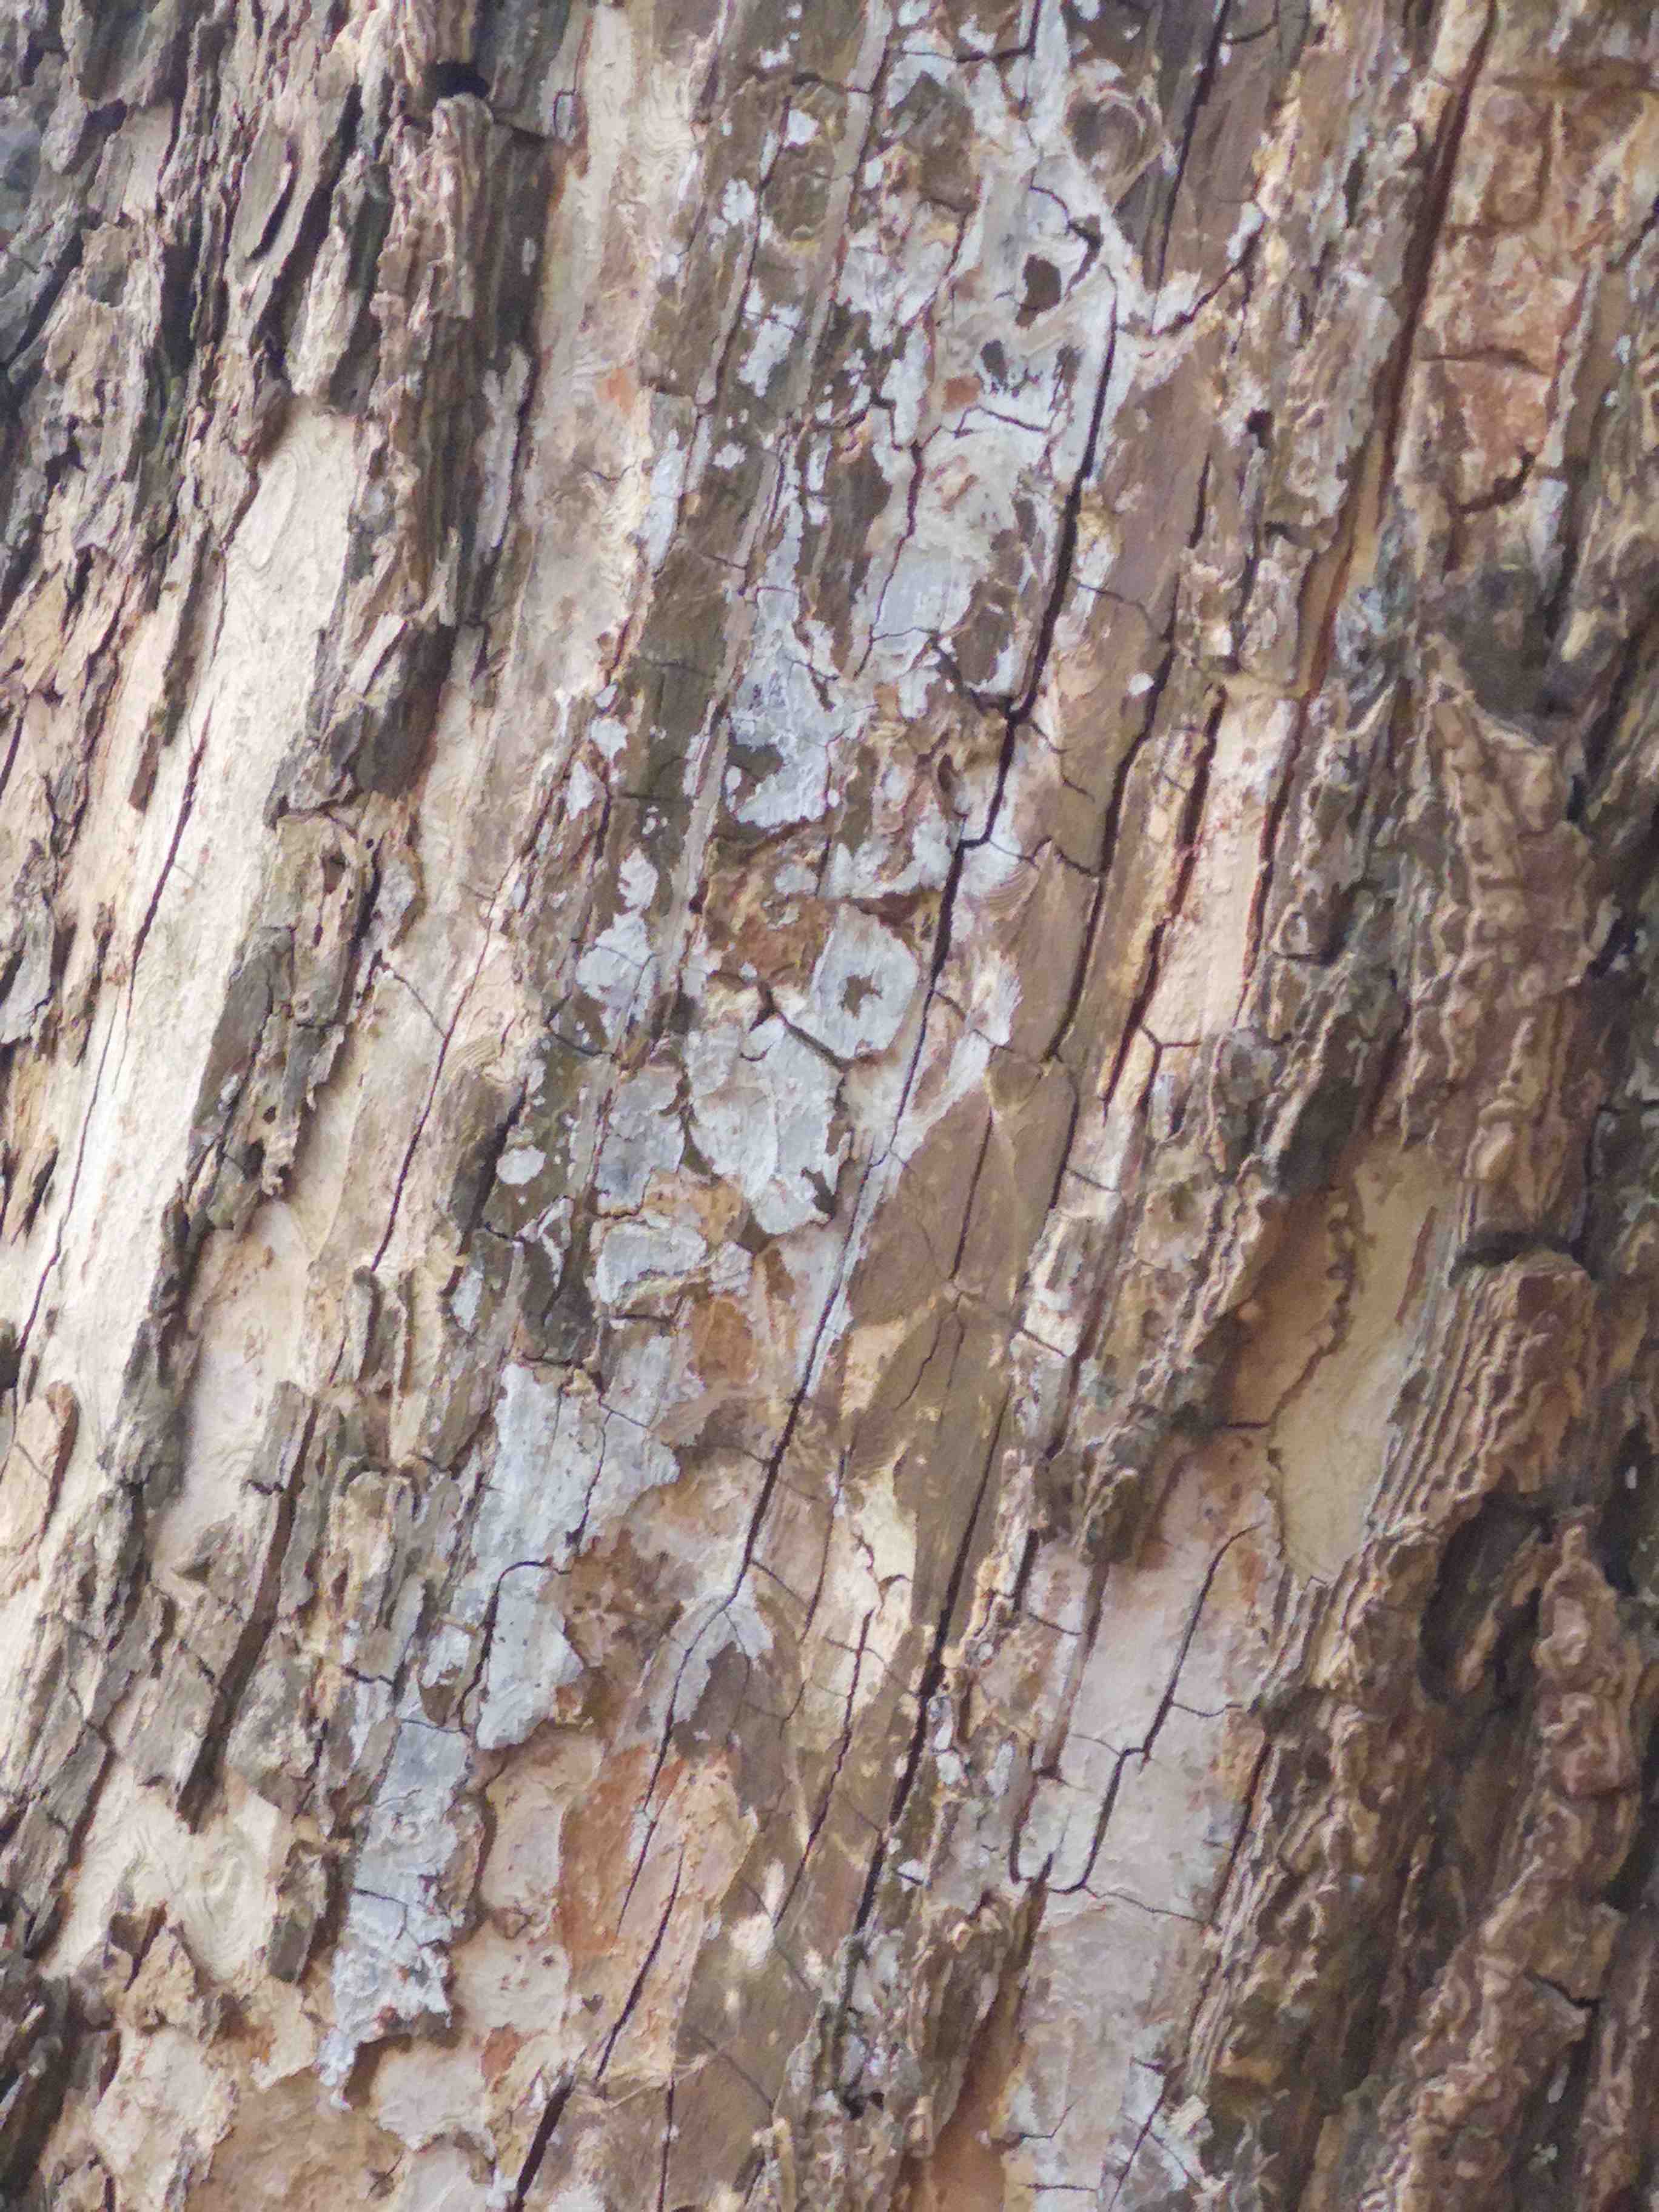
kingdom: Fungi
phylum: Basidiomycota
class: Agaricomycetes
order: Agaricales
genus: Dendrothele
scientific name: Dendrothele acerina
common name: navr-kalkplet
